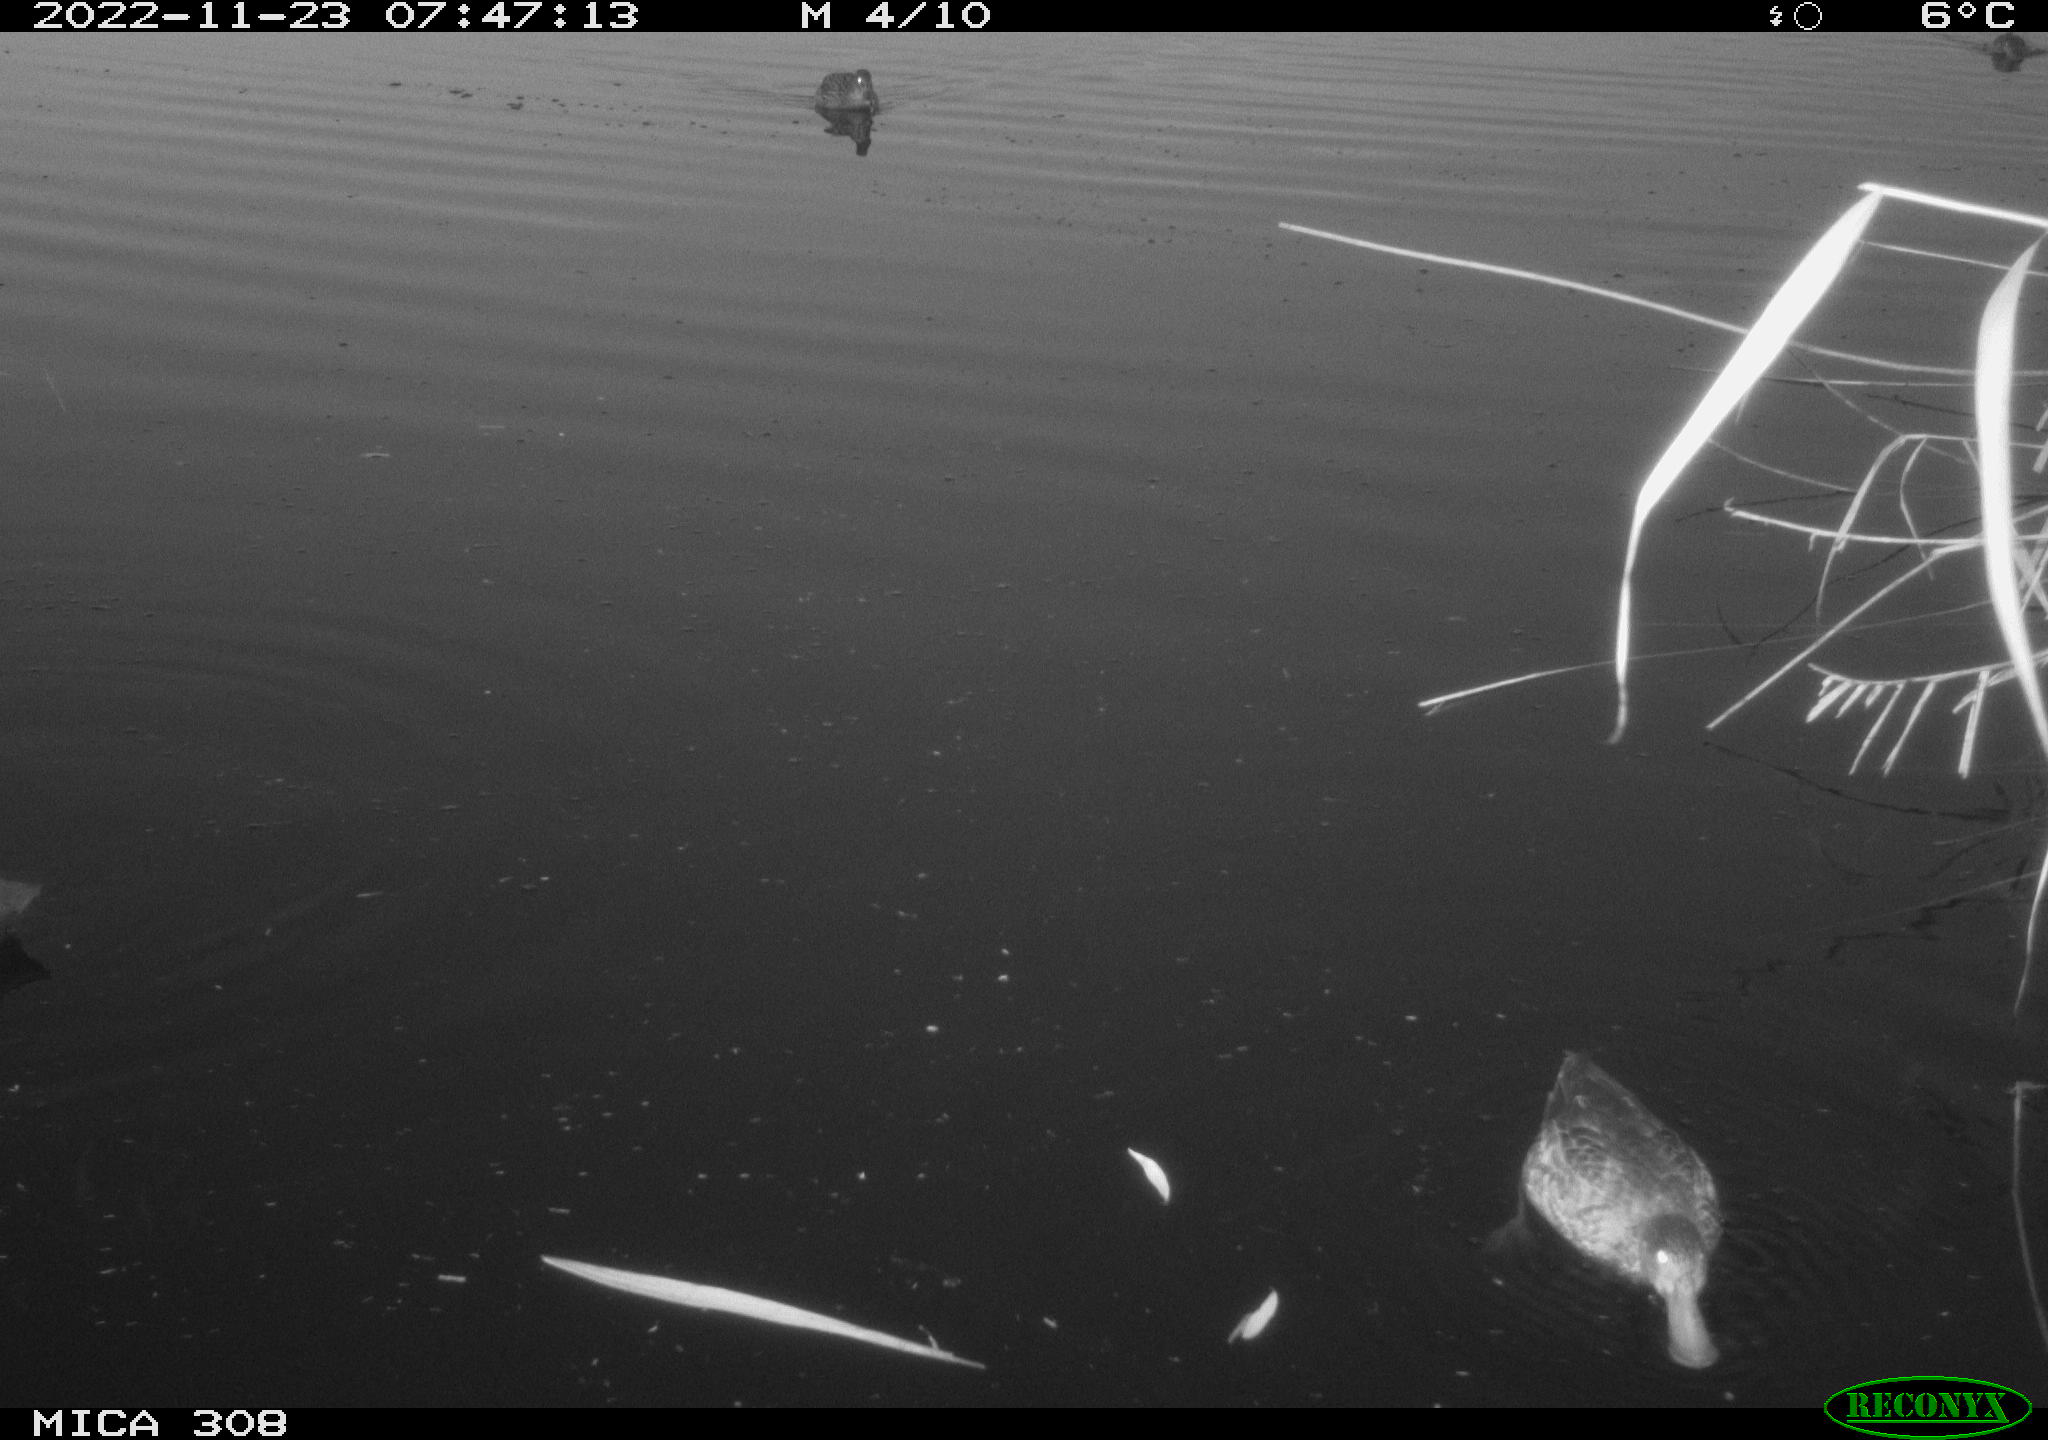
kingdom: Animalia
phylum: Chordata
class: Aves
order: Gruiformes
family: Rallidae
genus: Fulica
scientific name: Fulica atra
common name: Eurasian coot
